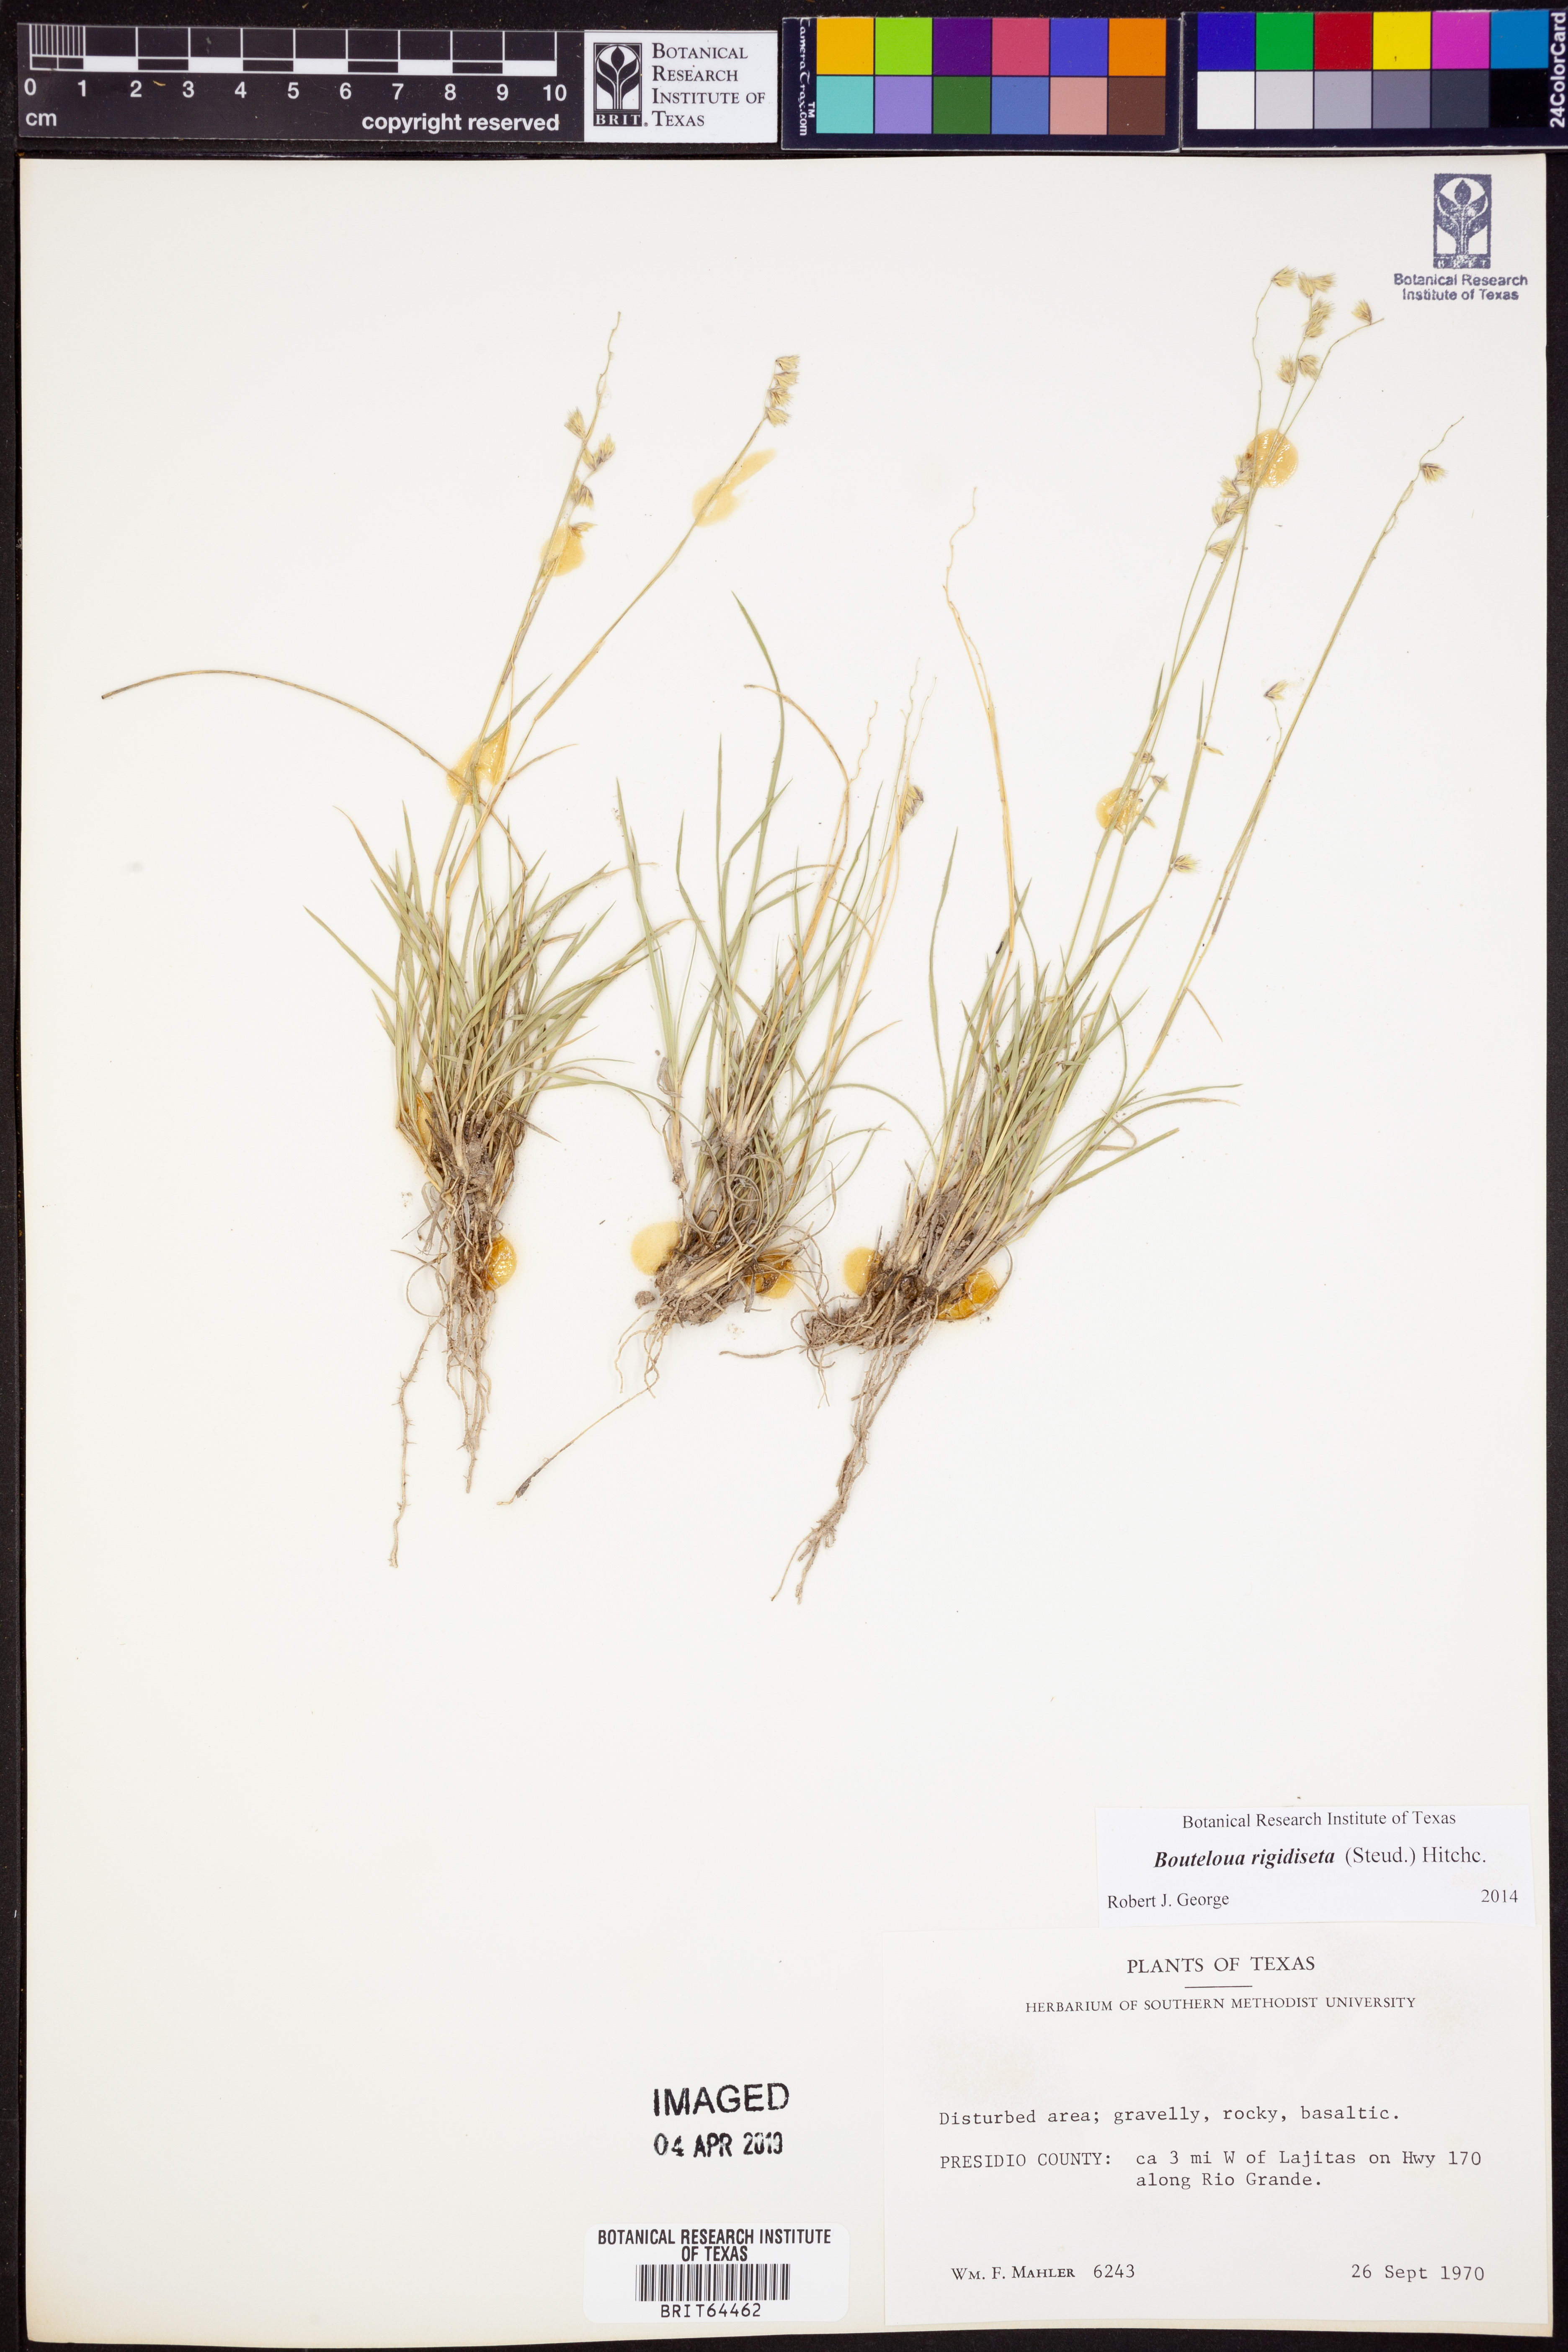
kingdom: Plantae
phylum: Tracheophyta
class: Liliopsida
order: Poales
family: Poaceae
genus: Bouteloua
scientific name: Bouteloua rigidiseta
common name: Texas grama
